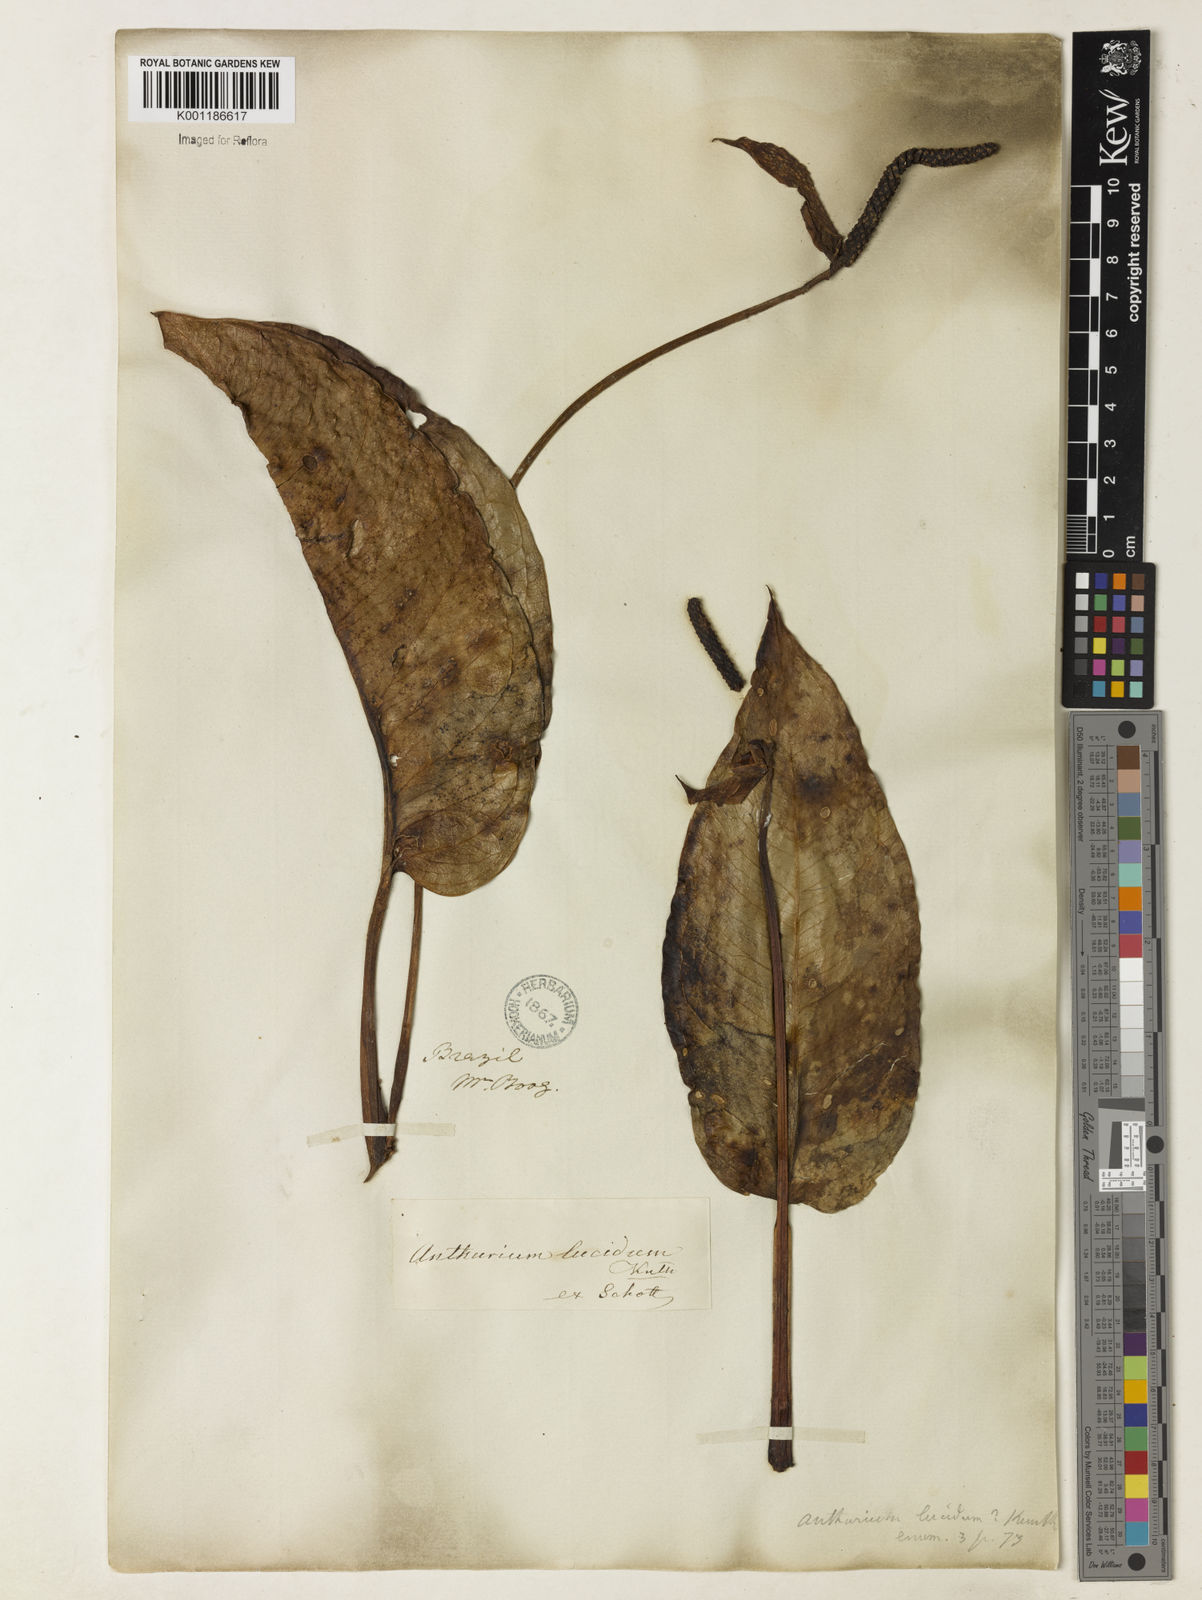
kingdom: Plantae
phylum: Tracheophyta
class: Liliopsida
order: Alismatales
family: Araceae
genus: Anthurium
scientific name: Anthurium lucidum
